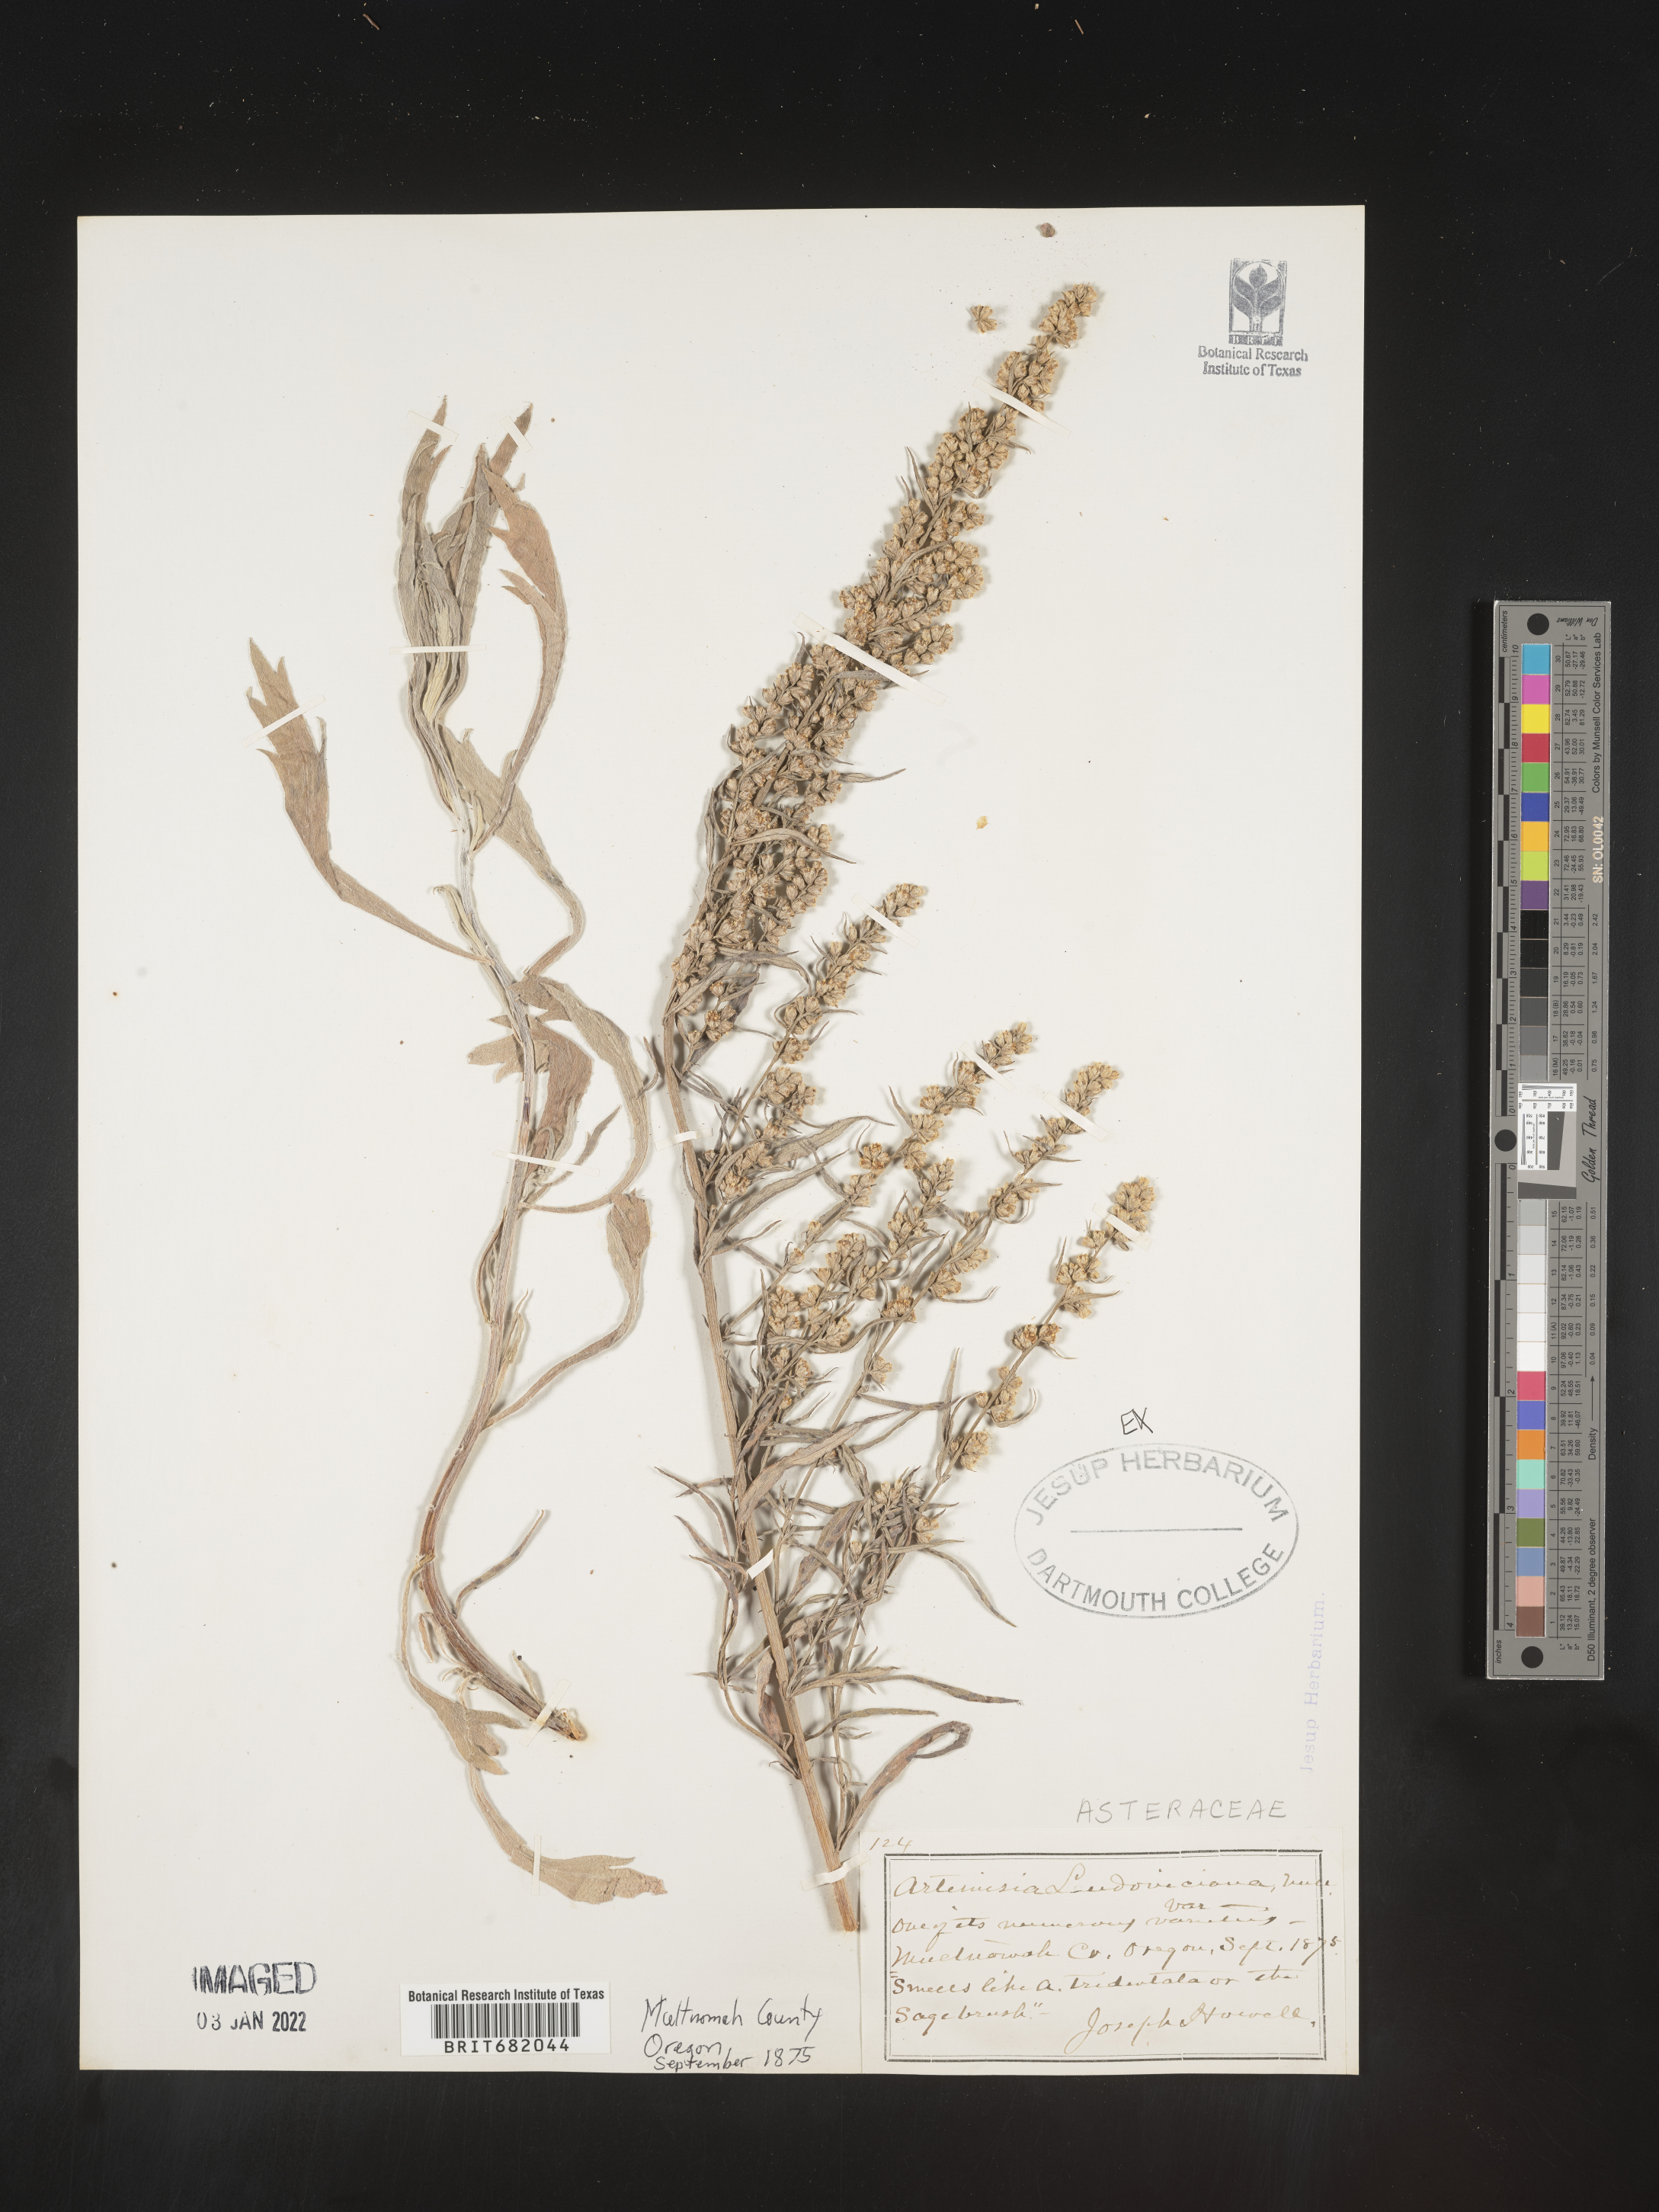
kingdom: Plantae
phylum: Tracheophyta
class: Magnoliopsida
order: Asterales
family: Asteraceae
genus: Artemisia
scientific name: Artemisia ludoviciana
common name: Western mugwort
